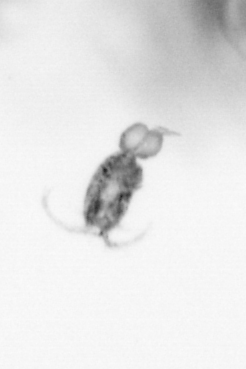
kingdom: Animalia
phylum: Arthropoda
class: Copepoda
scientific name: Copepoda
